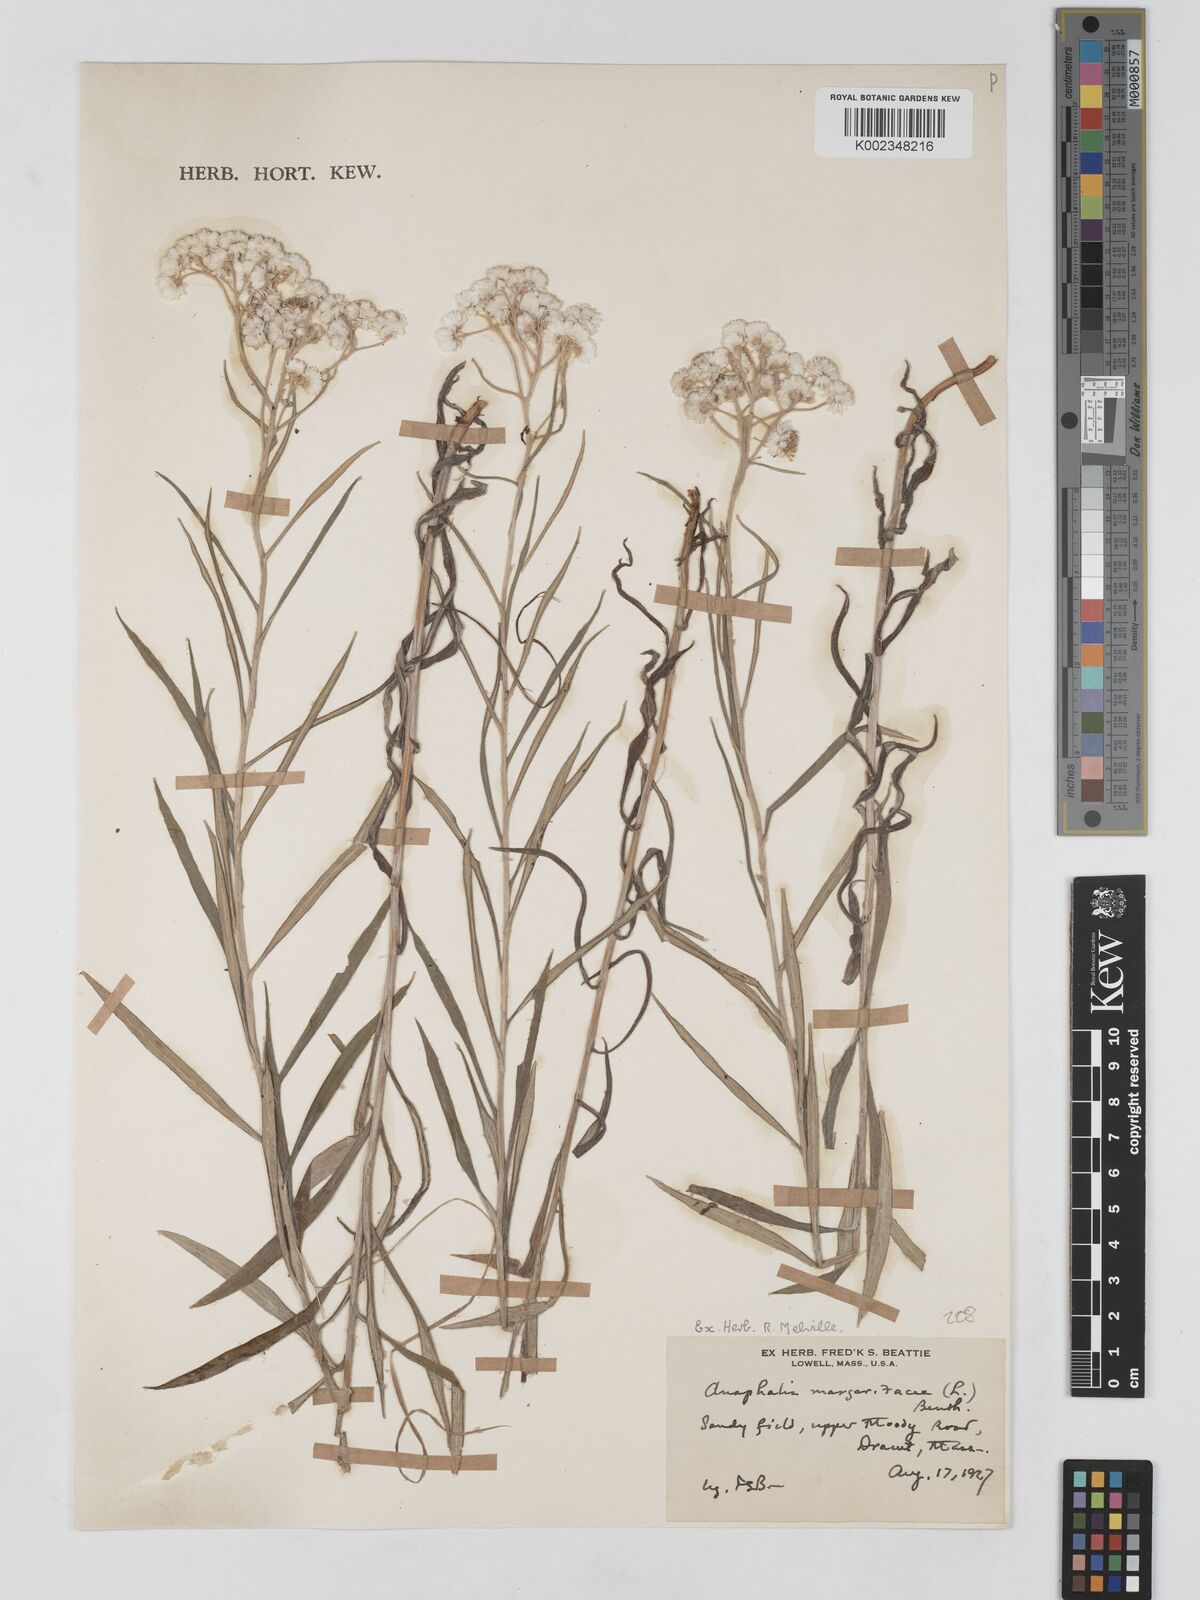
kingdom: Plantae
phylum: Tracheophyta
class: Magnoliopsida
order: Asterales
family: Asteraceae
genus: Anaphalis
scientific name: Anaphalis margaritacea
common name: Pearly everlasting
